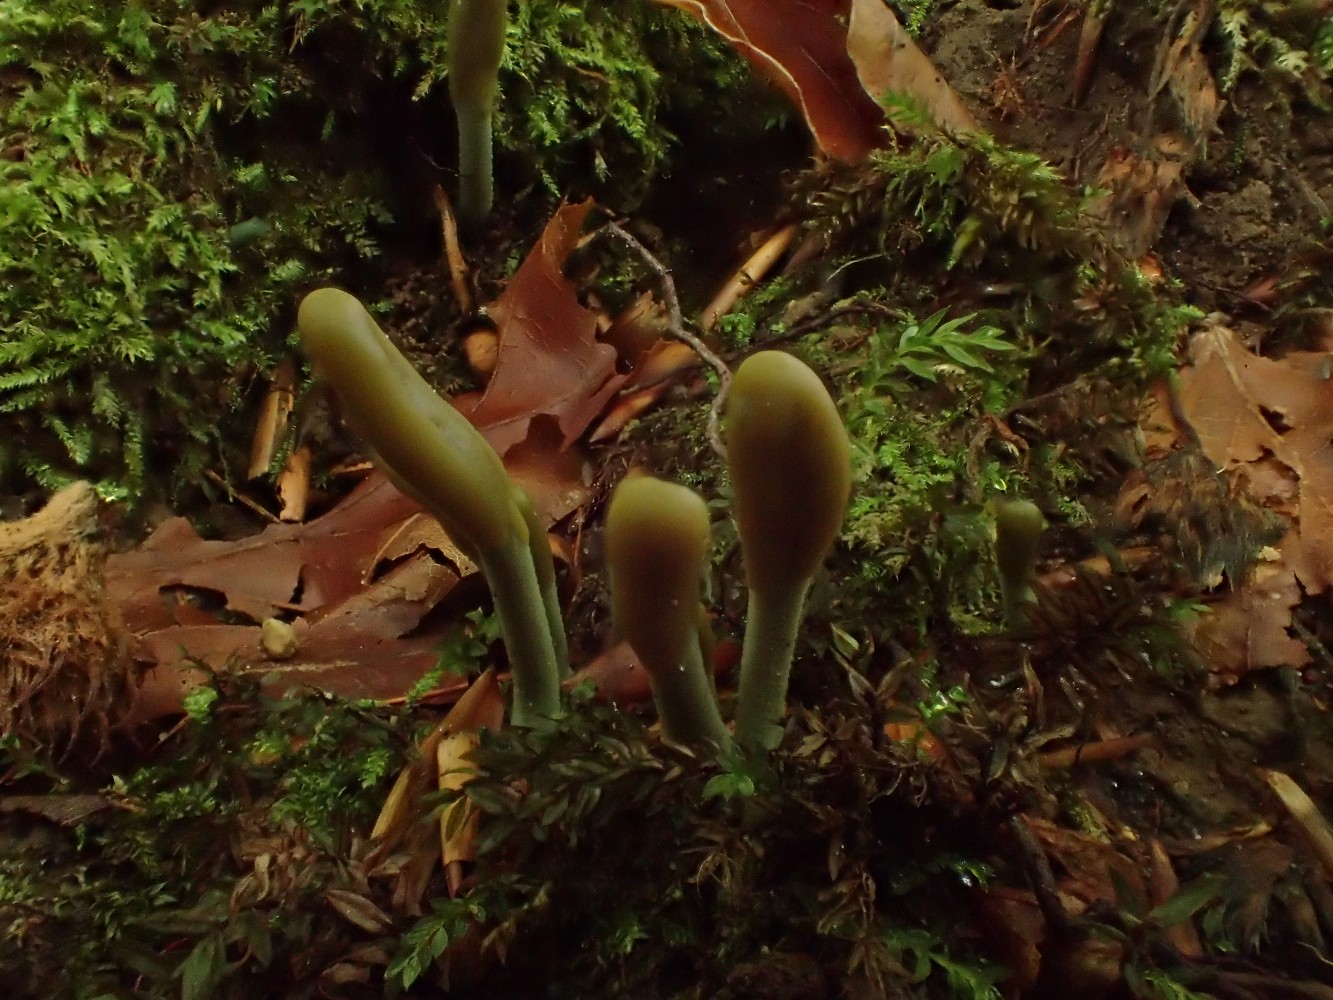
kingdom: Fungi
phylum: Ascomycota
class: Leotiomycetes
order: Leotiales
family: Leotiaceae
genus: Microglossum
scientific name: Microglossum griseoviride
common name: grågrøn farvetunge
